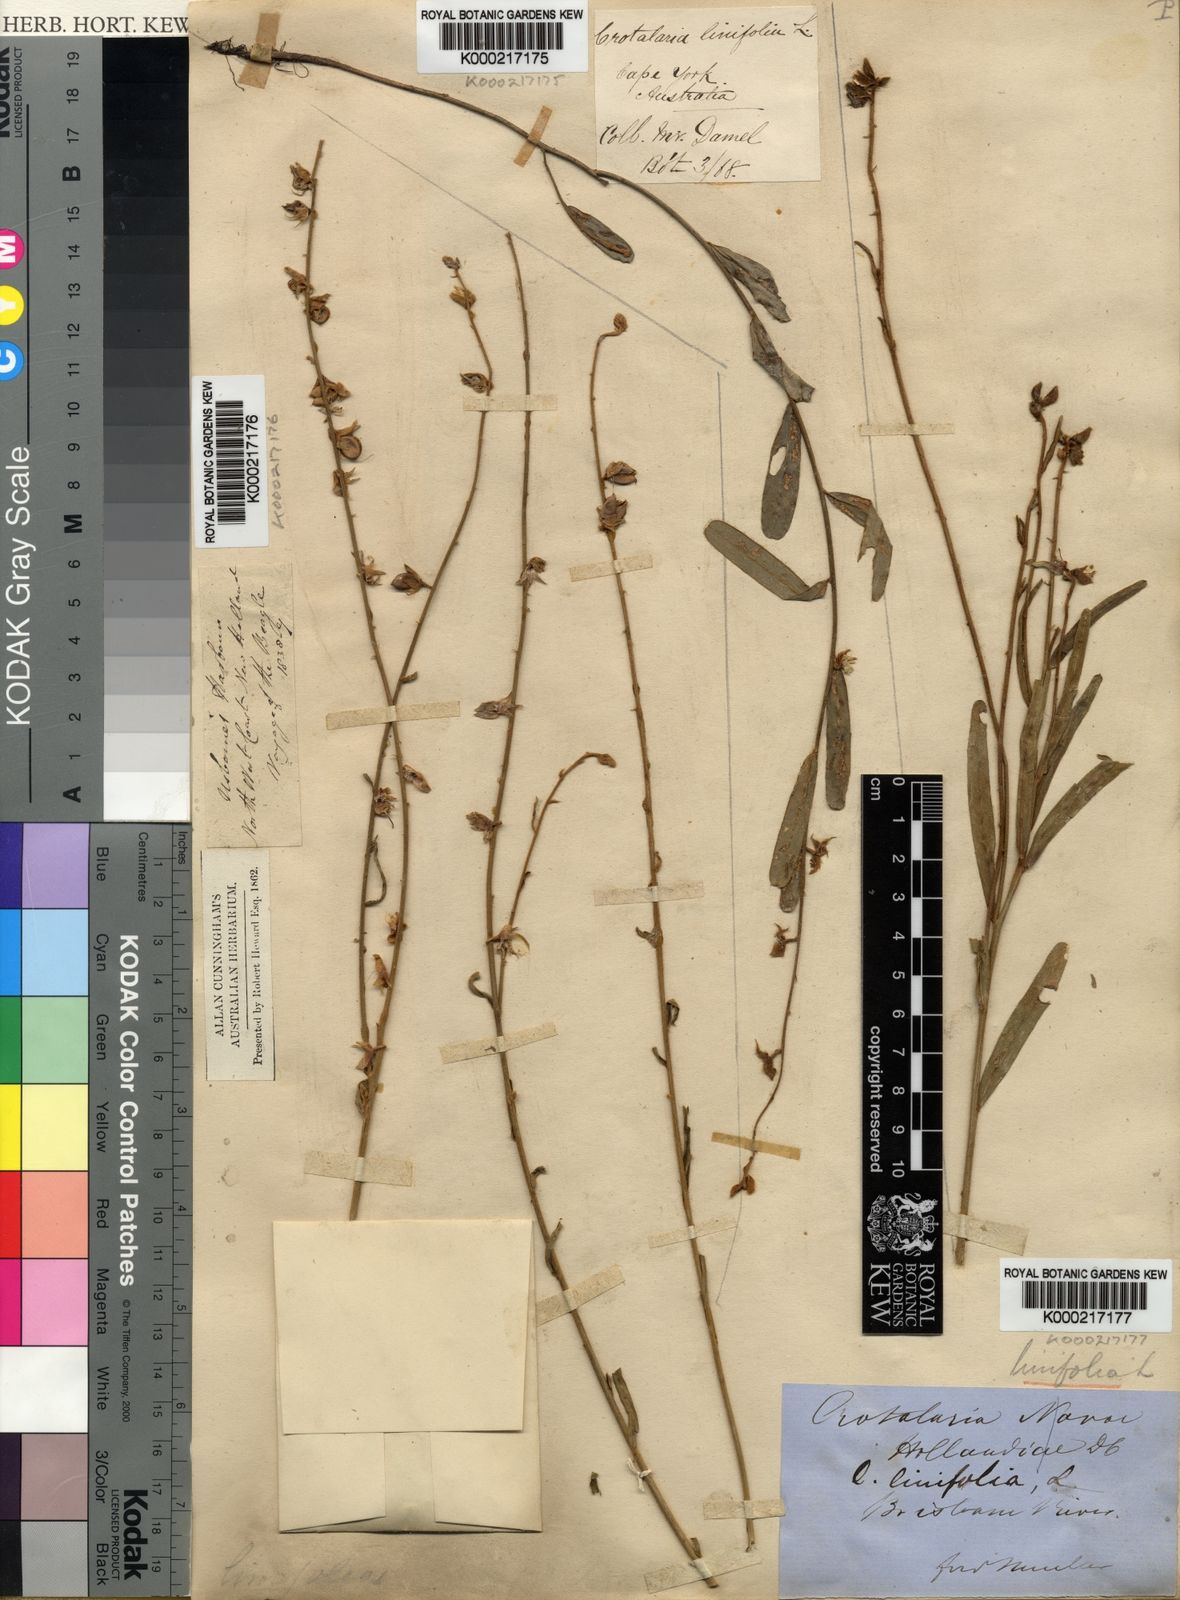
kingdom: Plantae
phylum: Tracheophyta
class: Magnoliopsida
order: Fabales
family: Fabaceae
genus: Crotalaria
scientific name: Crotalaria linifolia
